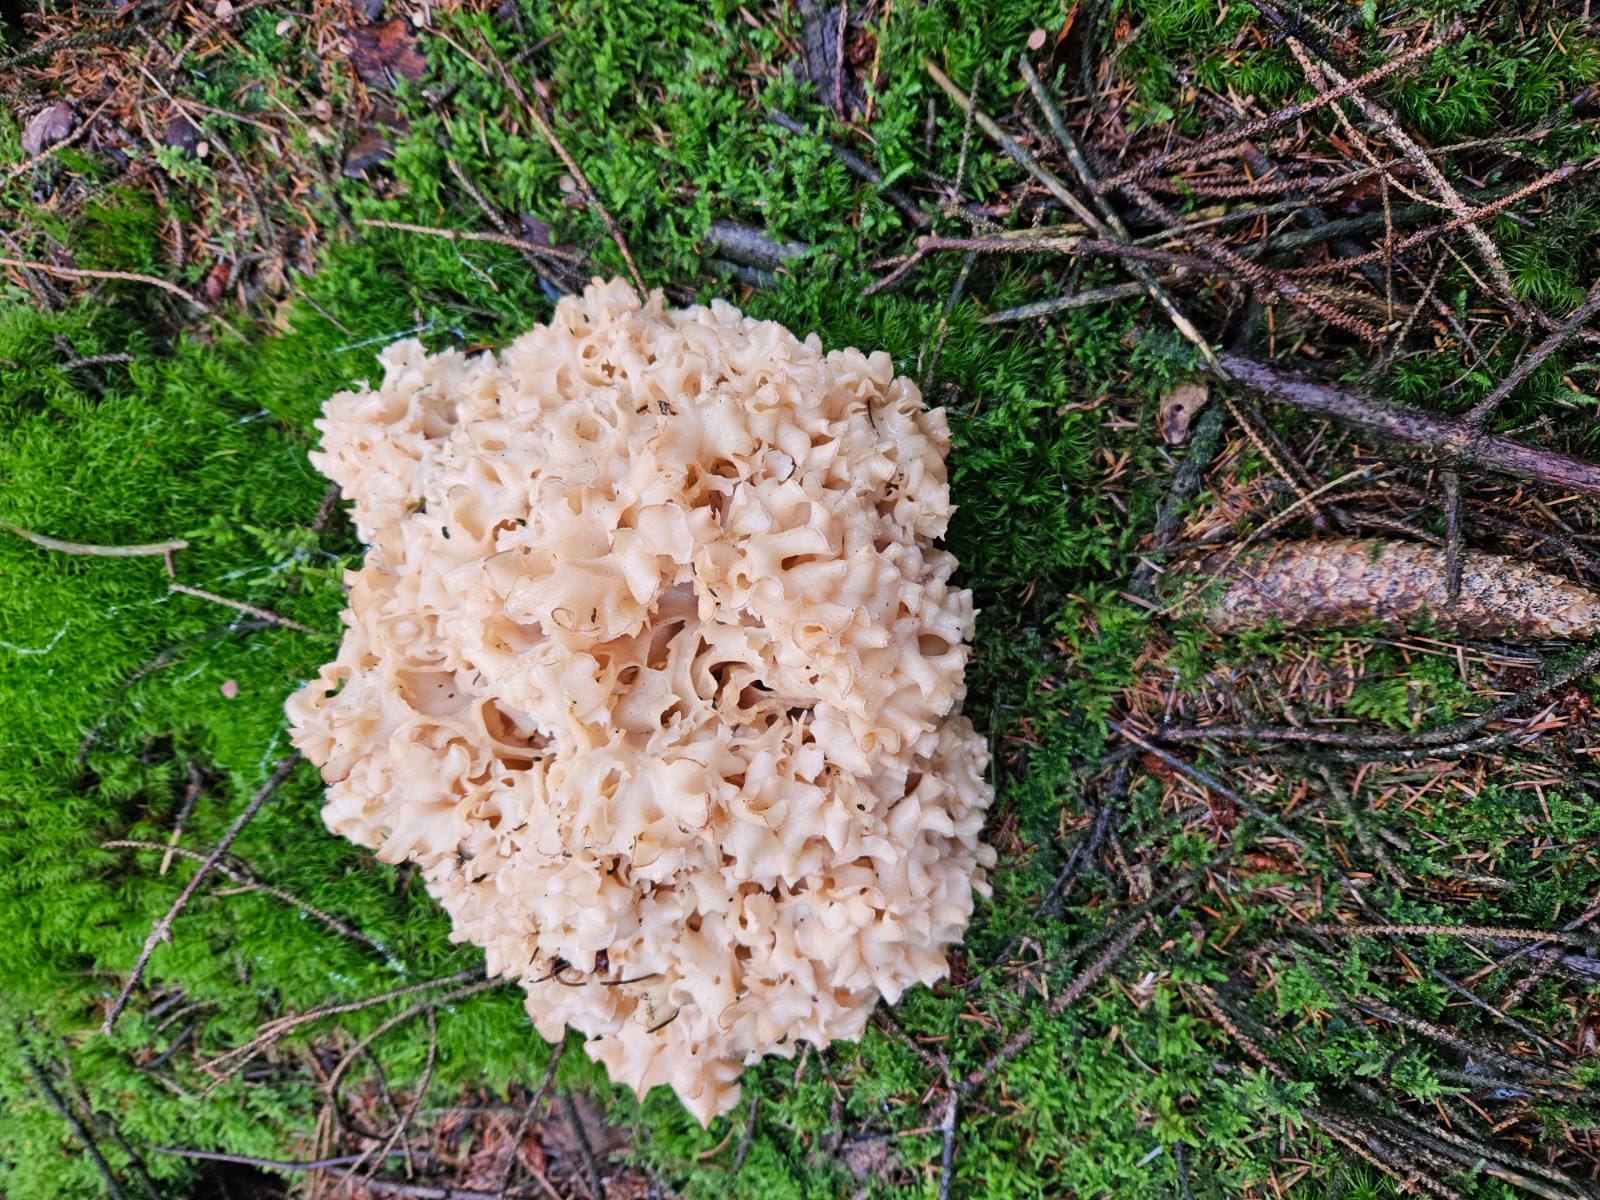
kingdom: Fungi
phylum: Basidiomycota
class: Agaricomycetes
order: Polyporales
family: Sparassidaceae
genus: Sparassis
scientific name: Sparassis crispa
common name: kruset blomkålssvamp
